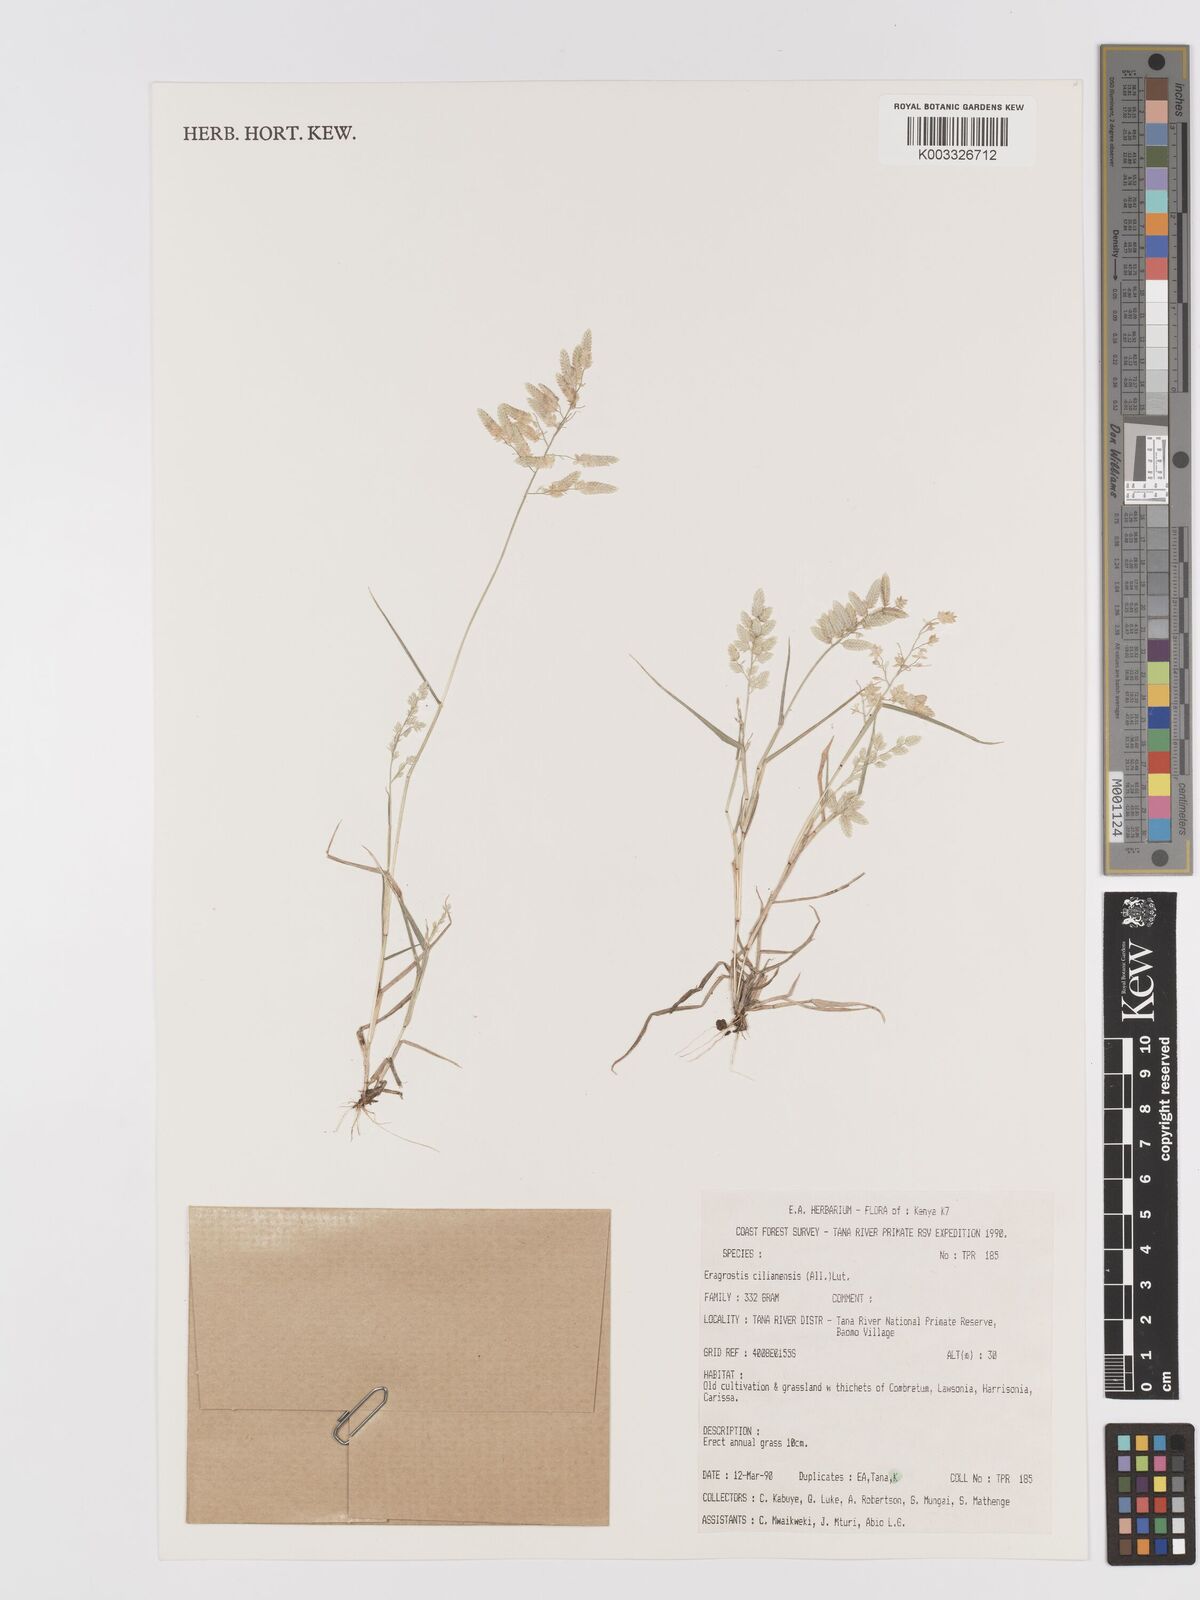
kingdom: Plantae
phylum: Tracheophyta
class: Liliopsida
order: Poales
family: Poaceae
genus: Eragrostis
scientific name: Eragrostis cilianensis
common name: Stinkgrass
